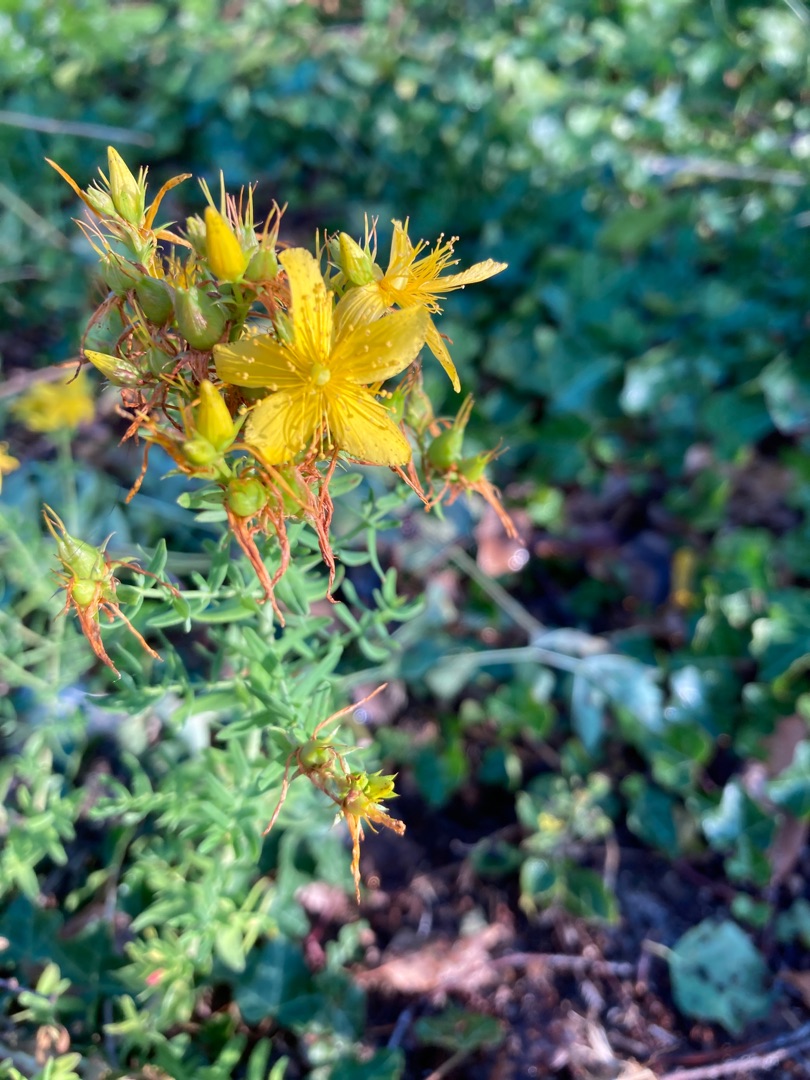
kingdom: Plantae
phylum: Tracheophyta
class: Magnoliopsida
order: Malpighiales
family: Hypericaceae
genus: Hypericum
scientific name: Hypericum perforatum
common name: Prikbladet perikon
